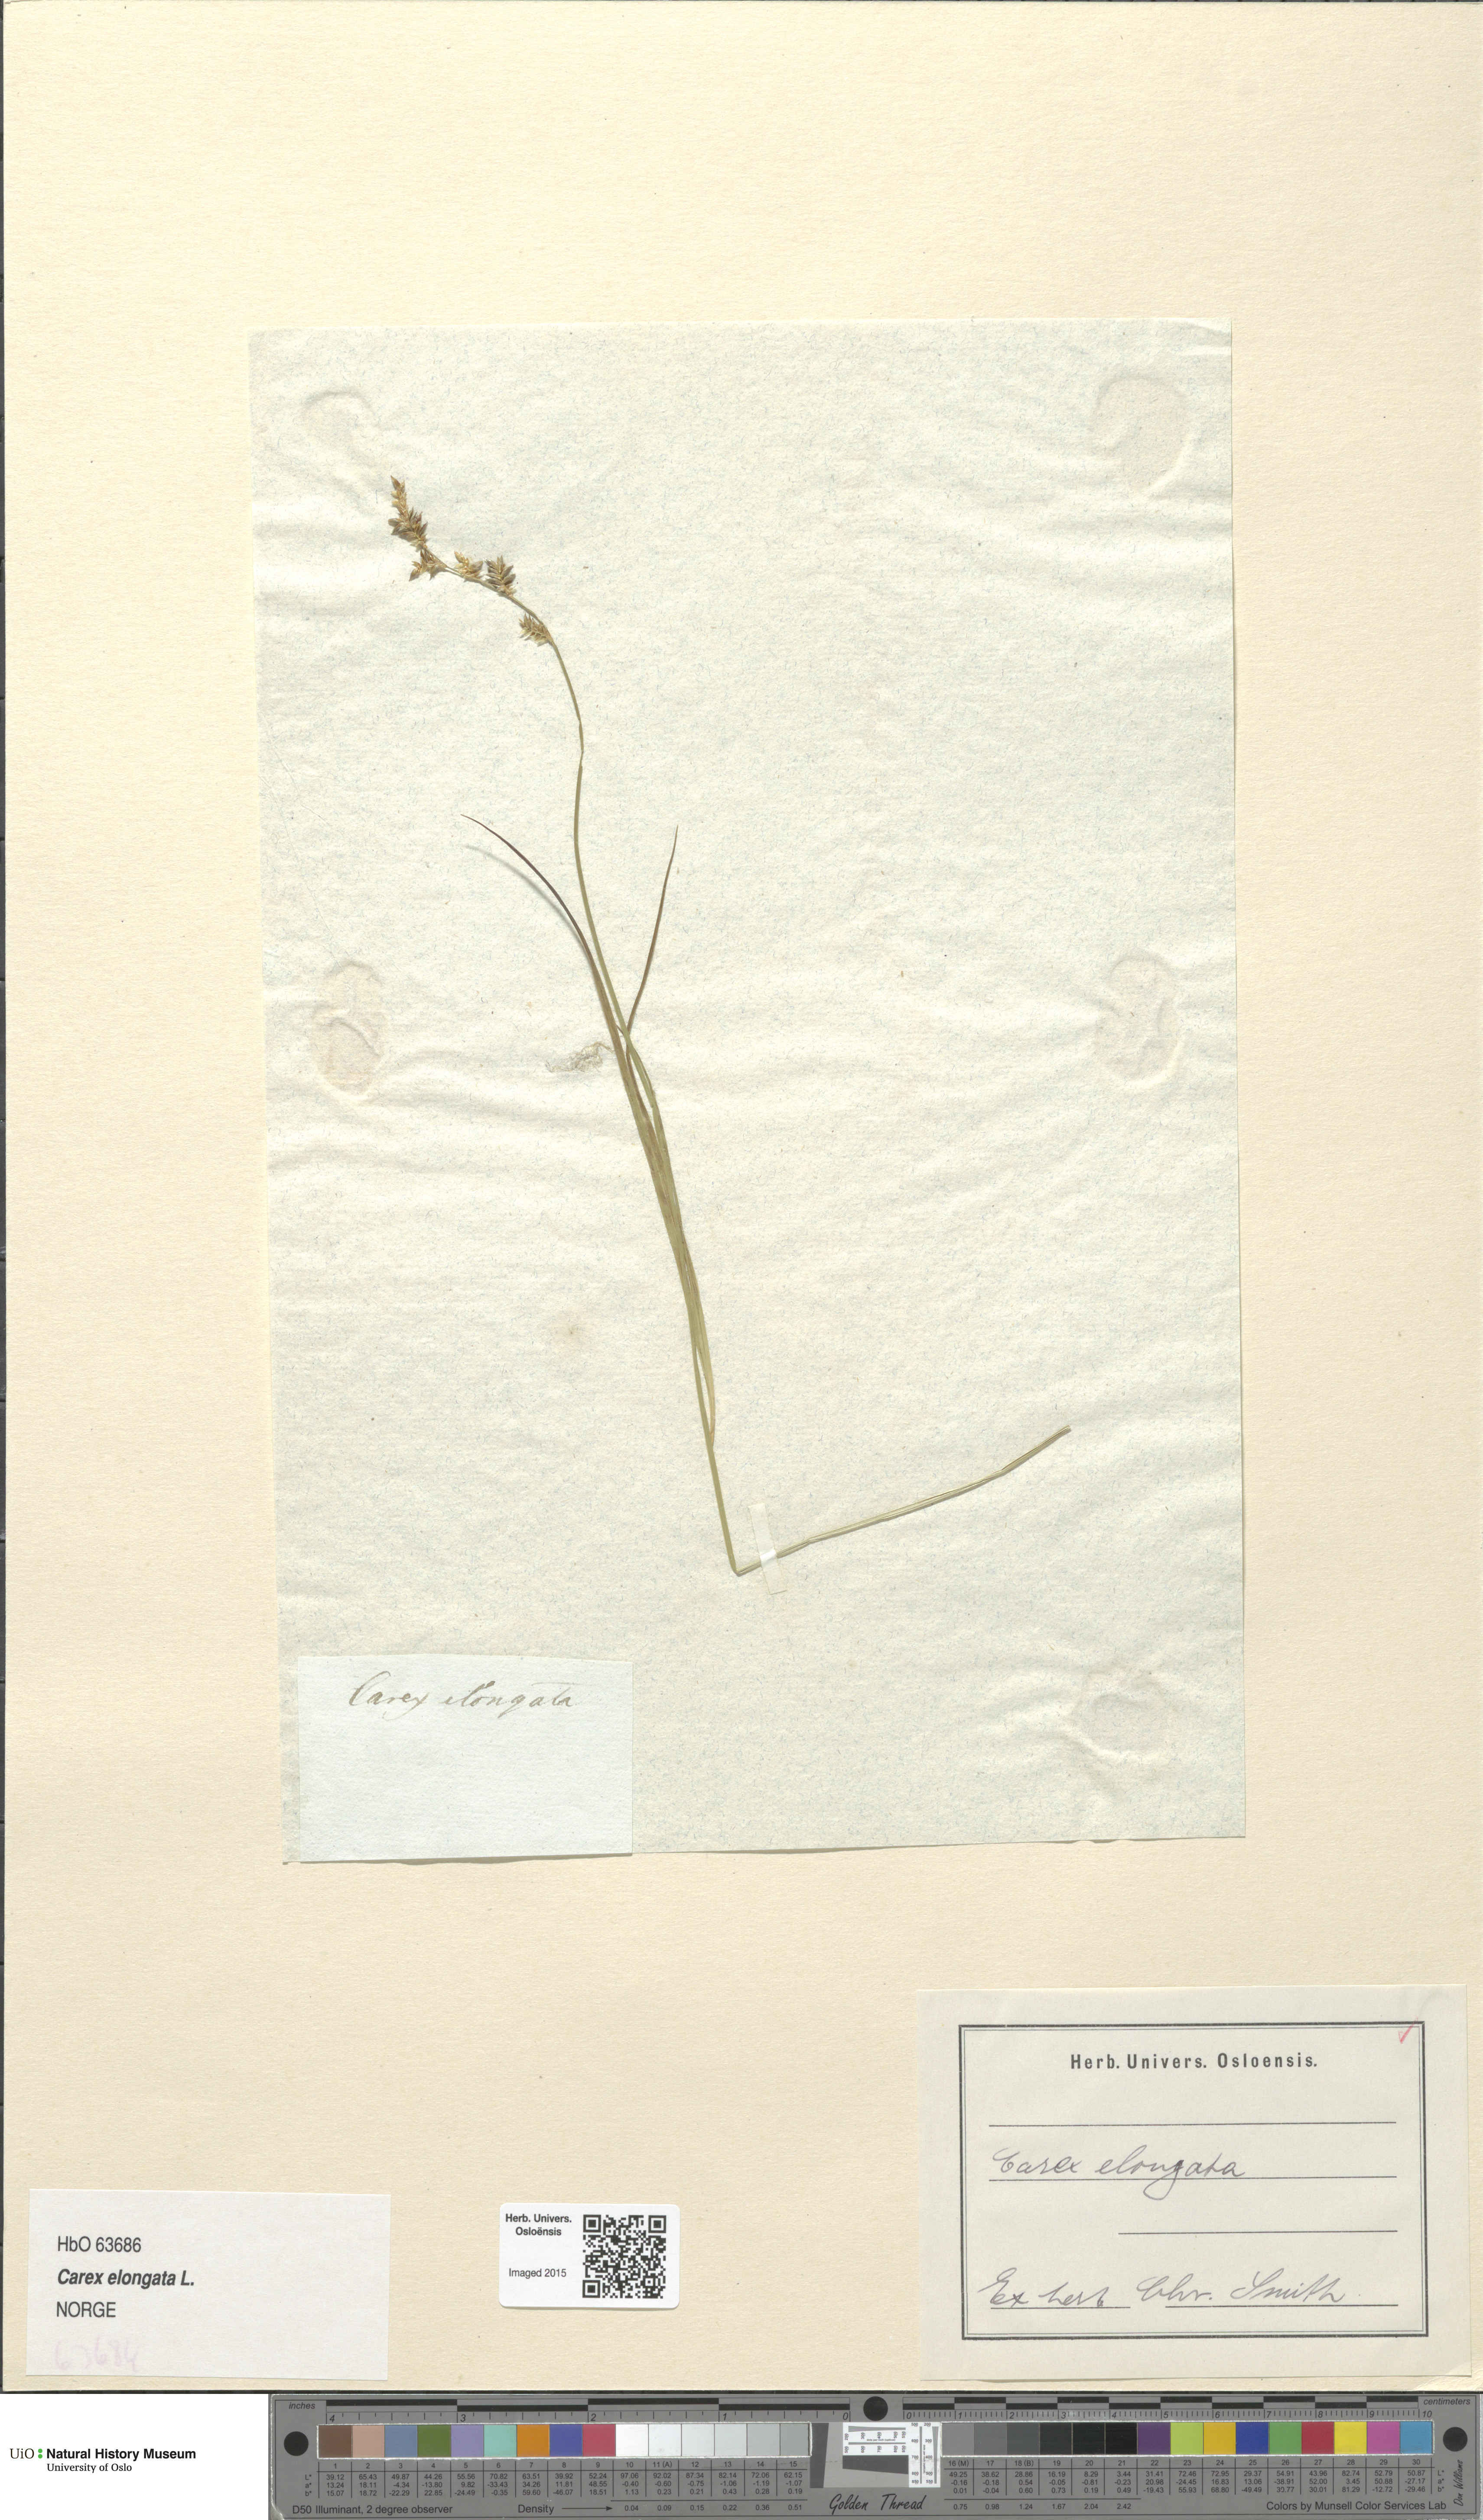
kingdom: Plantae
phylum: Tracheophyta
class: Liliopsida
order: Poales
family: Cyperaceae
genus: Carex
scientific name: Carex elongata
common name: Elongated sedge
